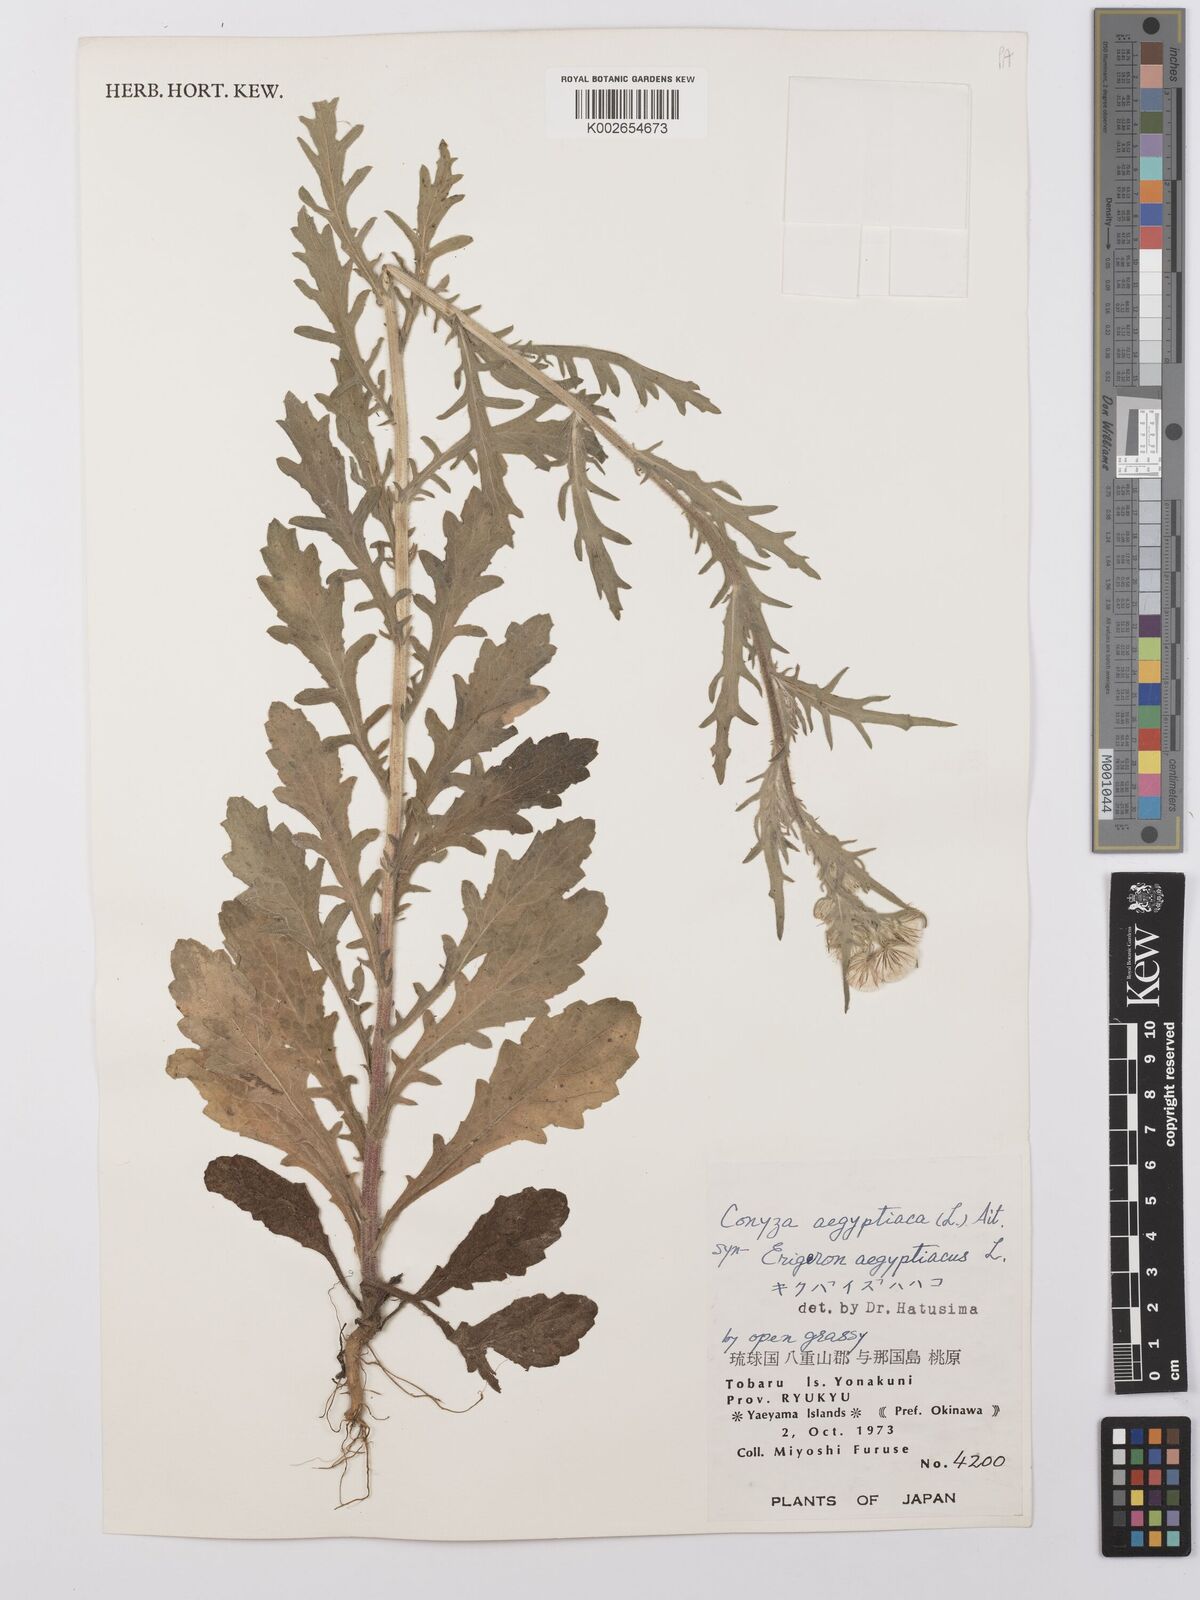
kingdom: Plantae
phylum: Tracheophyta
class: Magnoliopsida
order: Asterales
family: Asteraceae
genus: Nidorella
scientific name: Nidorella aegyptiaca
